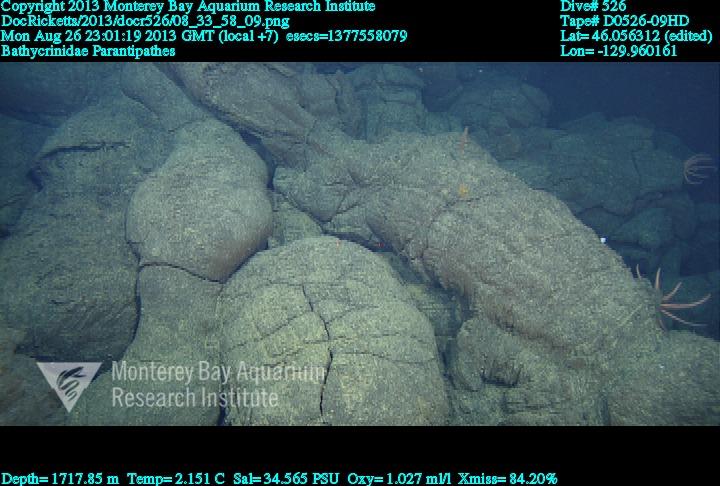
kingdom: Animalia
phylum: Cnidaria
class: Anthozoa
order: Antipatharia
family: Schizopathidae
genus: Parantipathes
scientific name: Parantipathes
